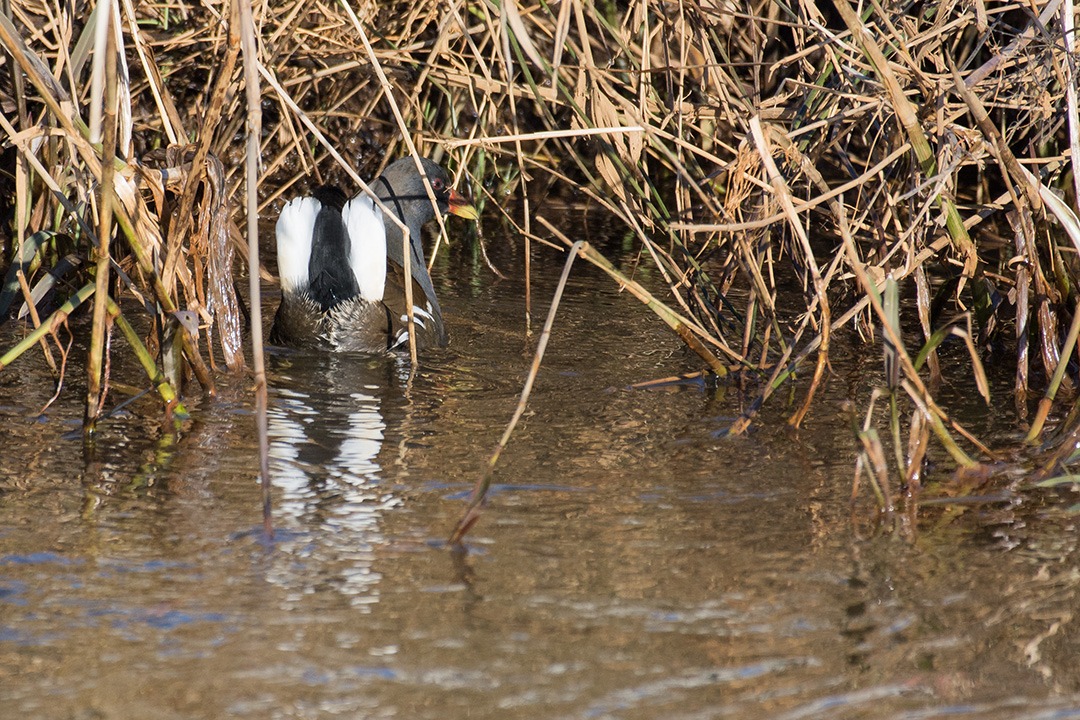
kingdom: Animalia
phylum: Chordata
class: Aves
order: Gruiformes
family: Rallidae
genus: Gallinula
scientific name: Gallinula chloropus
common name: Grønbenet rørhøne
